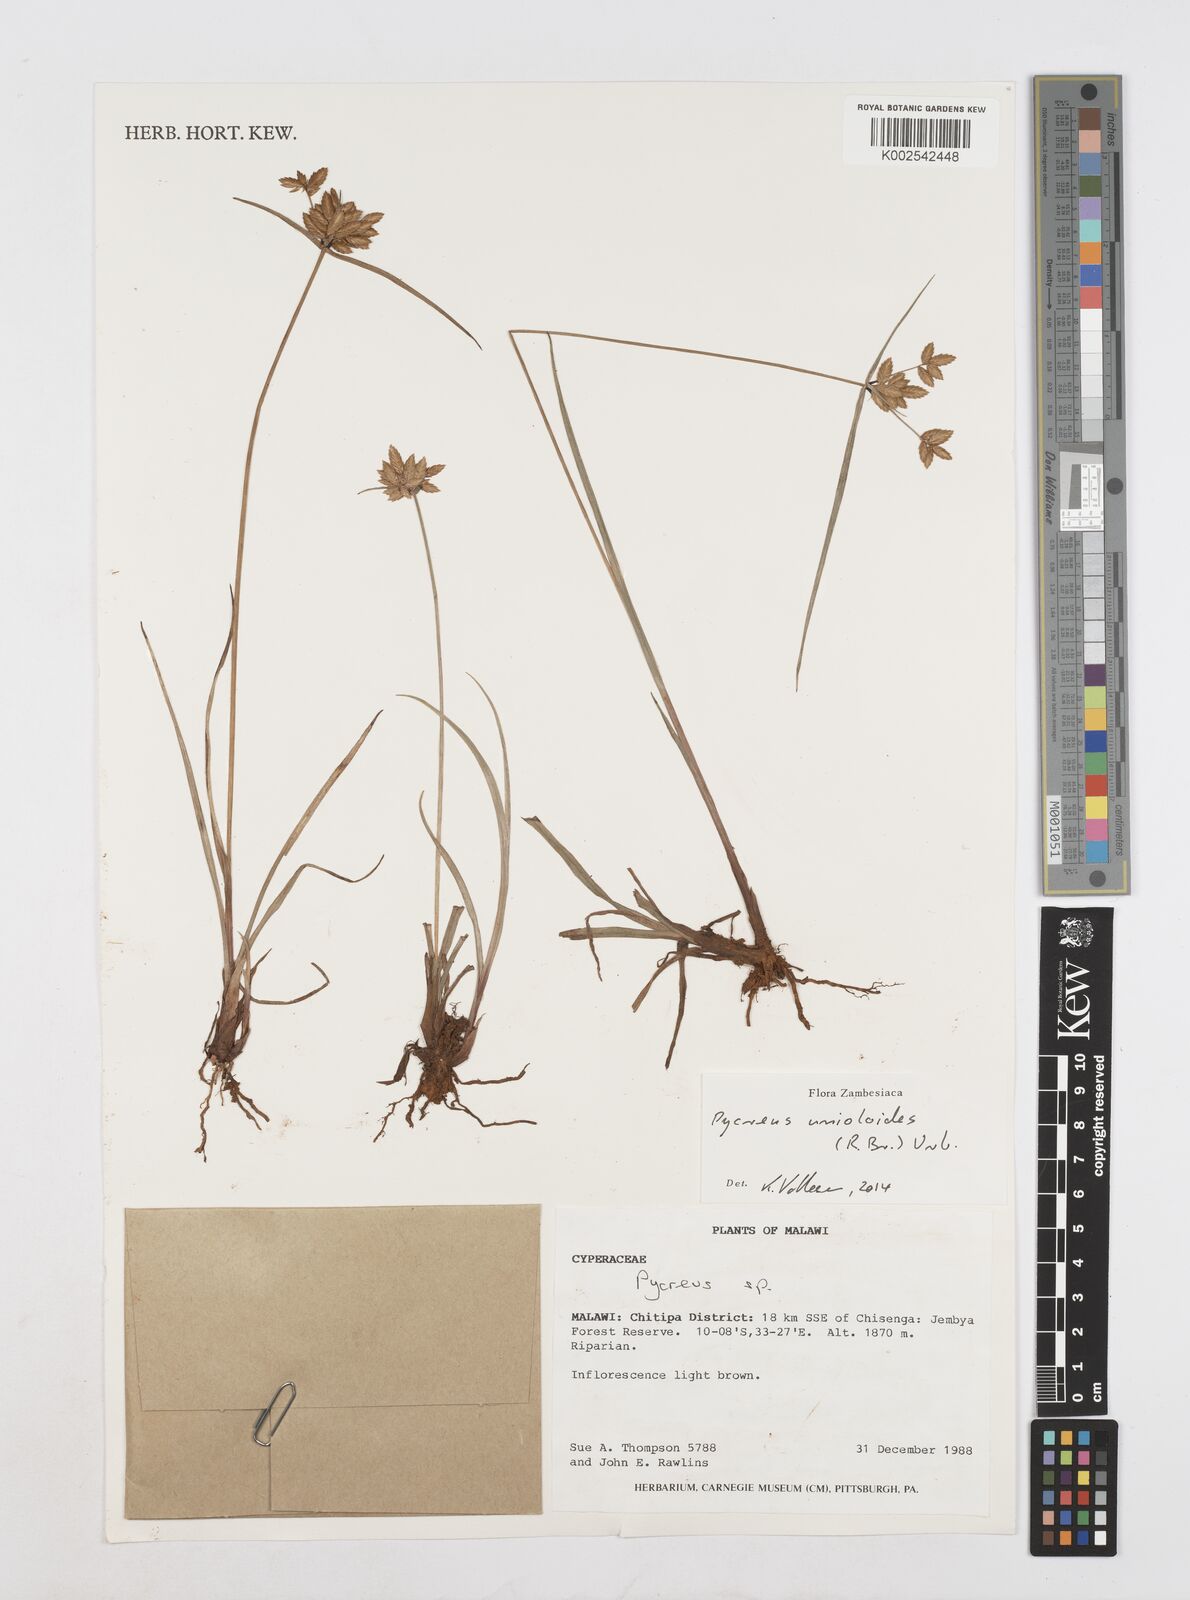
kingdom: Plantae
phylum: Tracheophyta
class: Liliopsida
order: Poales
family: Cyperaceae
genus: Cyperus
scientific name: Cyperus unioloides
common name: Uniola flatsedge
